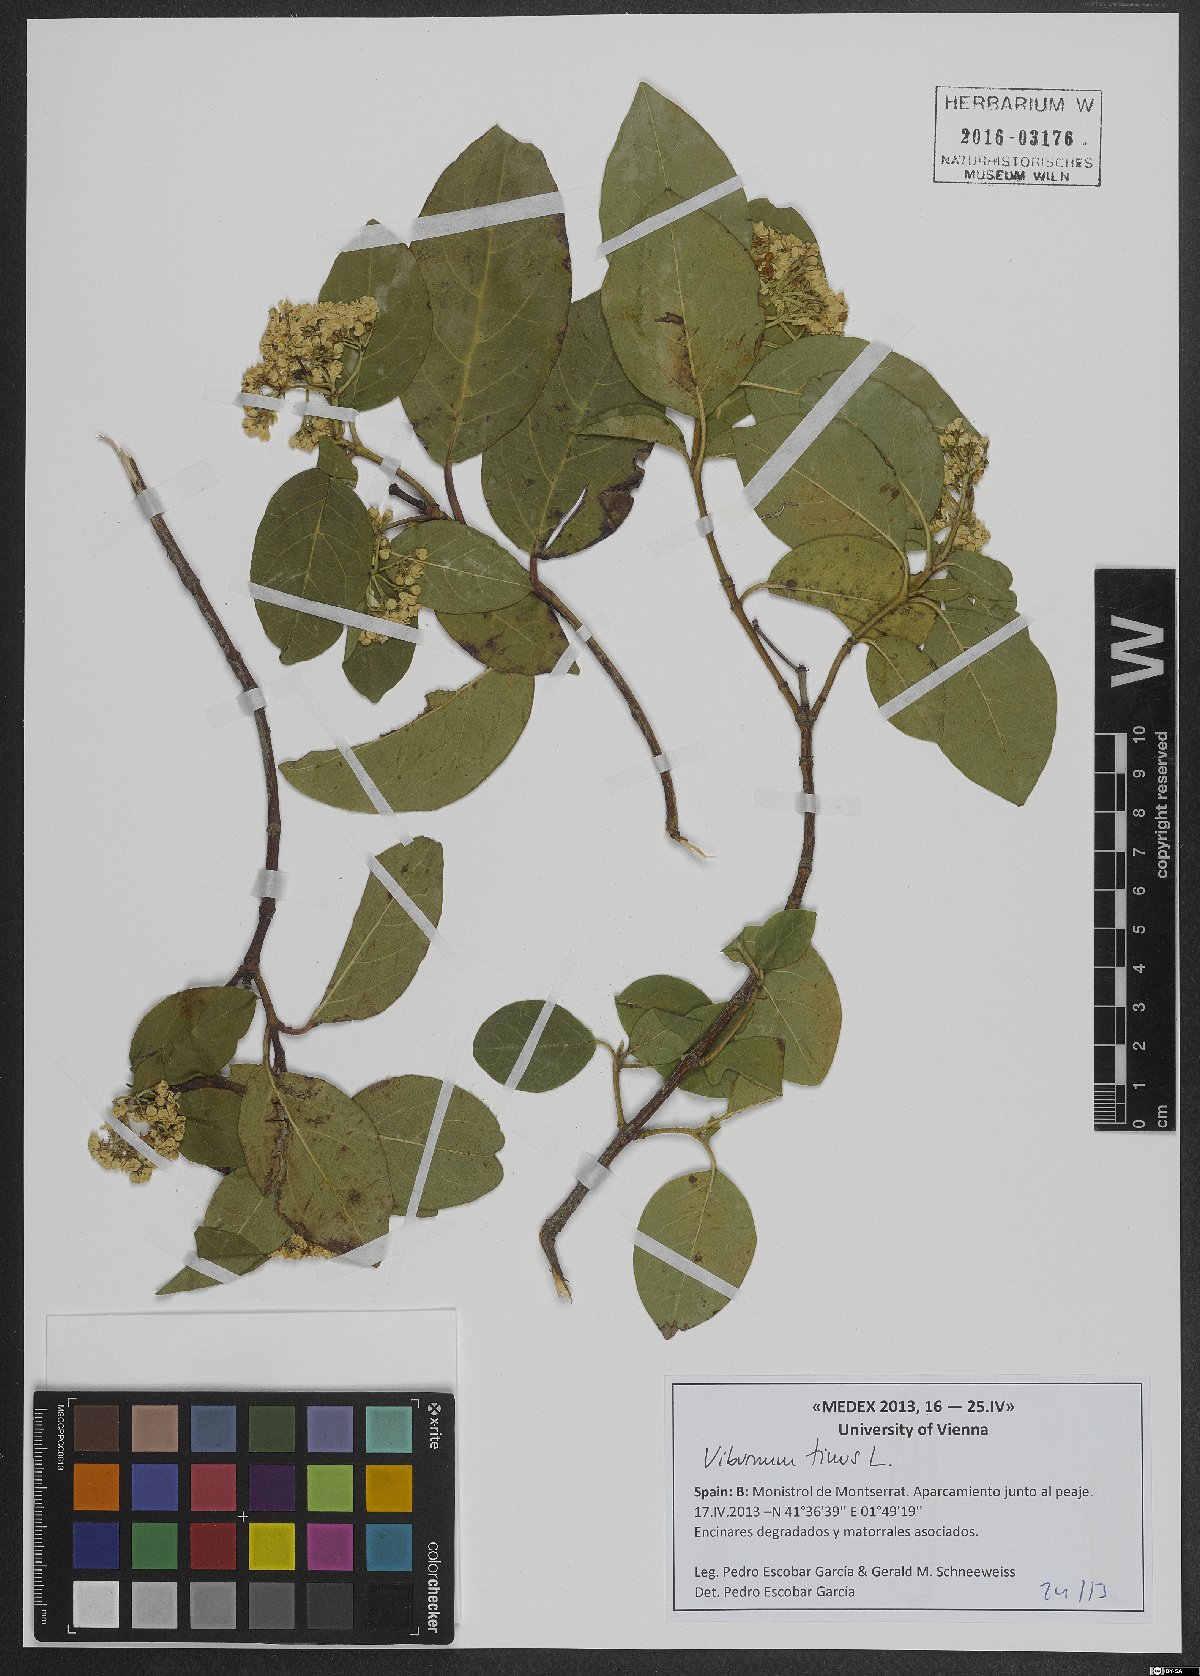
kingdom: Plantae
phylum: Tracheophyta
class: Magnoliopsida
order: Dipsacales
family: Viburnaceae
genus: Viburnum
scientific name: Viburnum tinus
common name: Laurustinus
